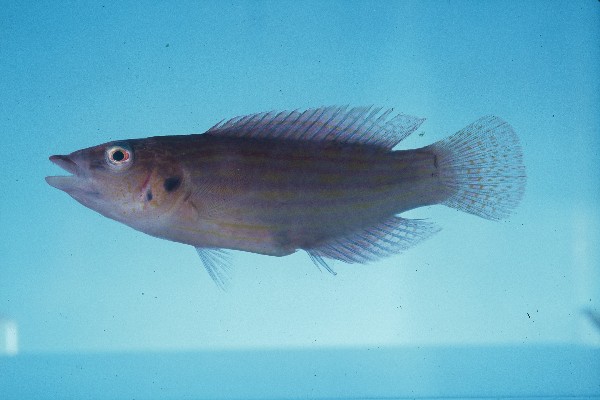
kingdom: Animalia
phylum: Chordata
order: Perciformes
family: Labridae
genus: Pseudocheilinus
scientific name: Pseudocheilinus dispilus
